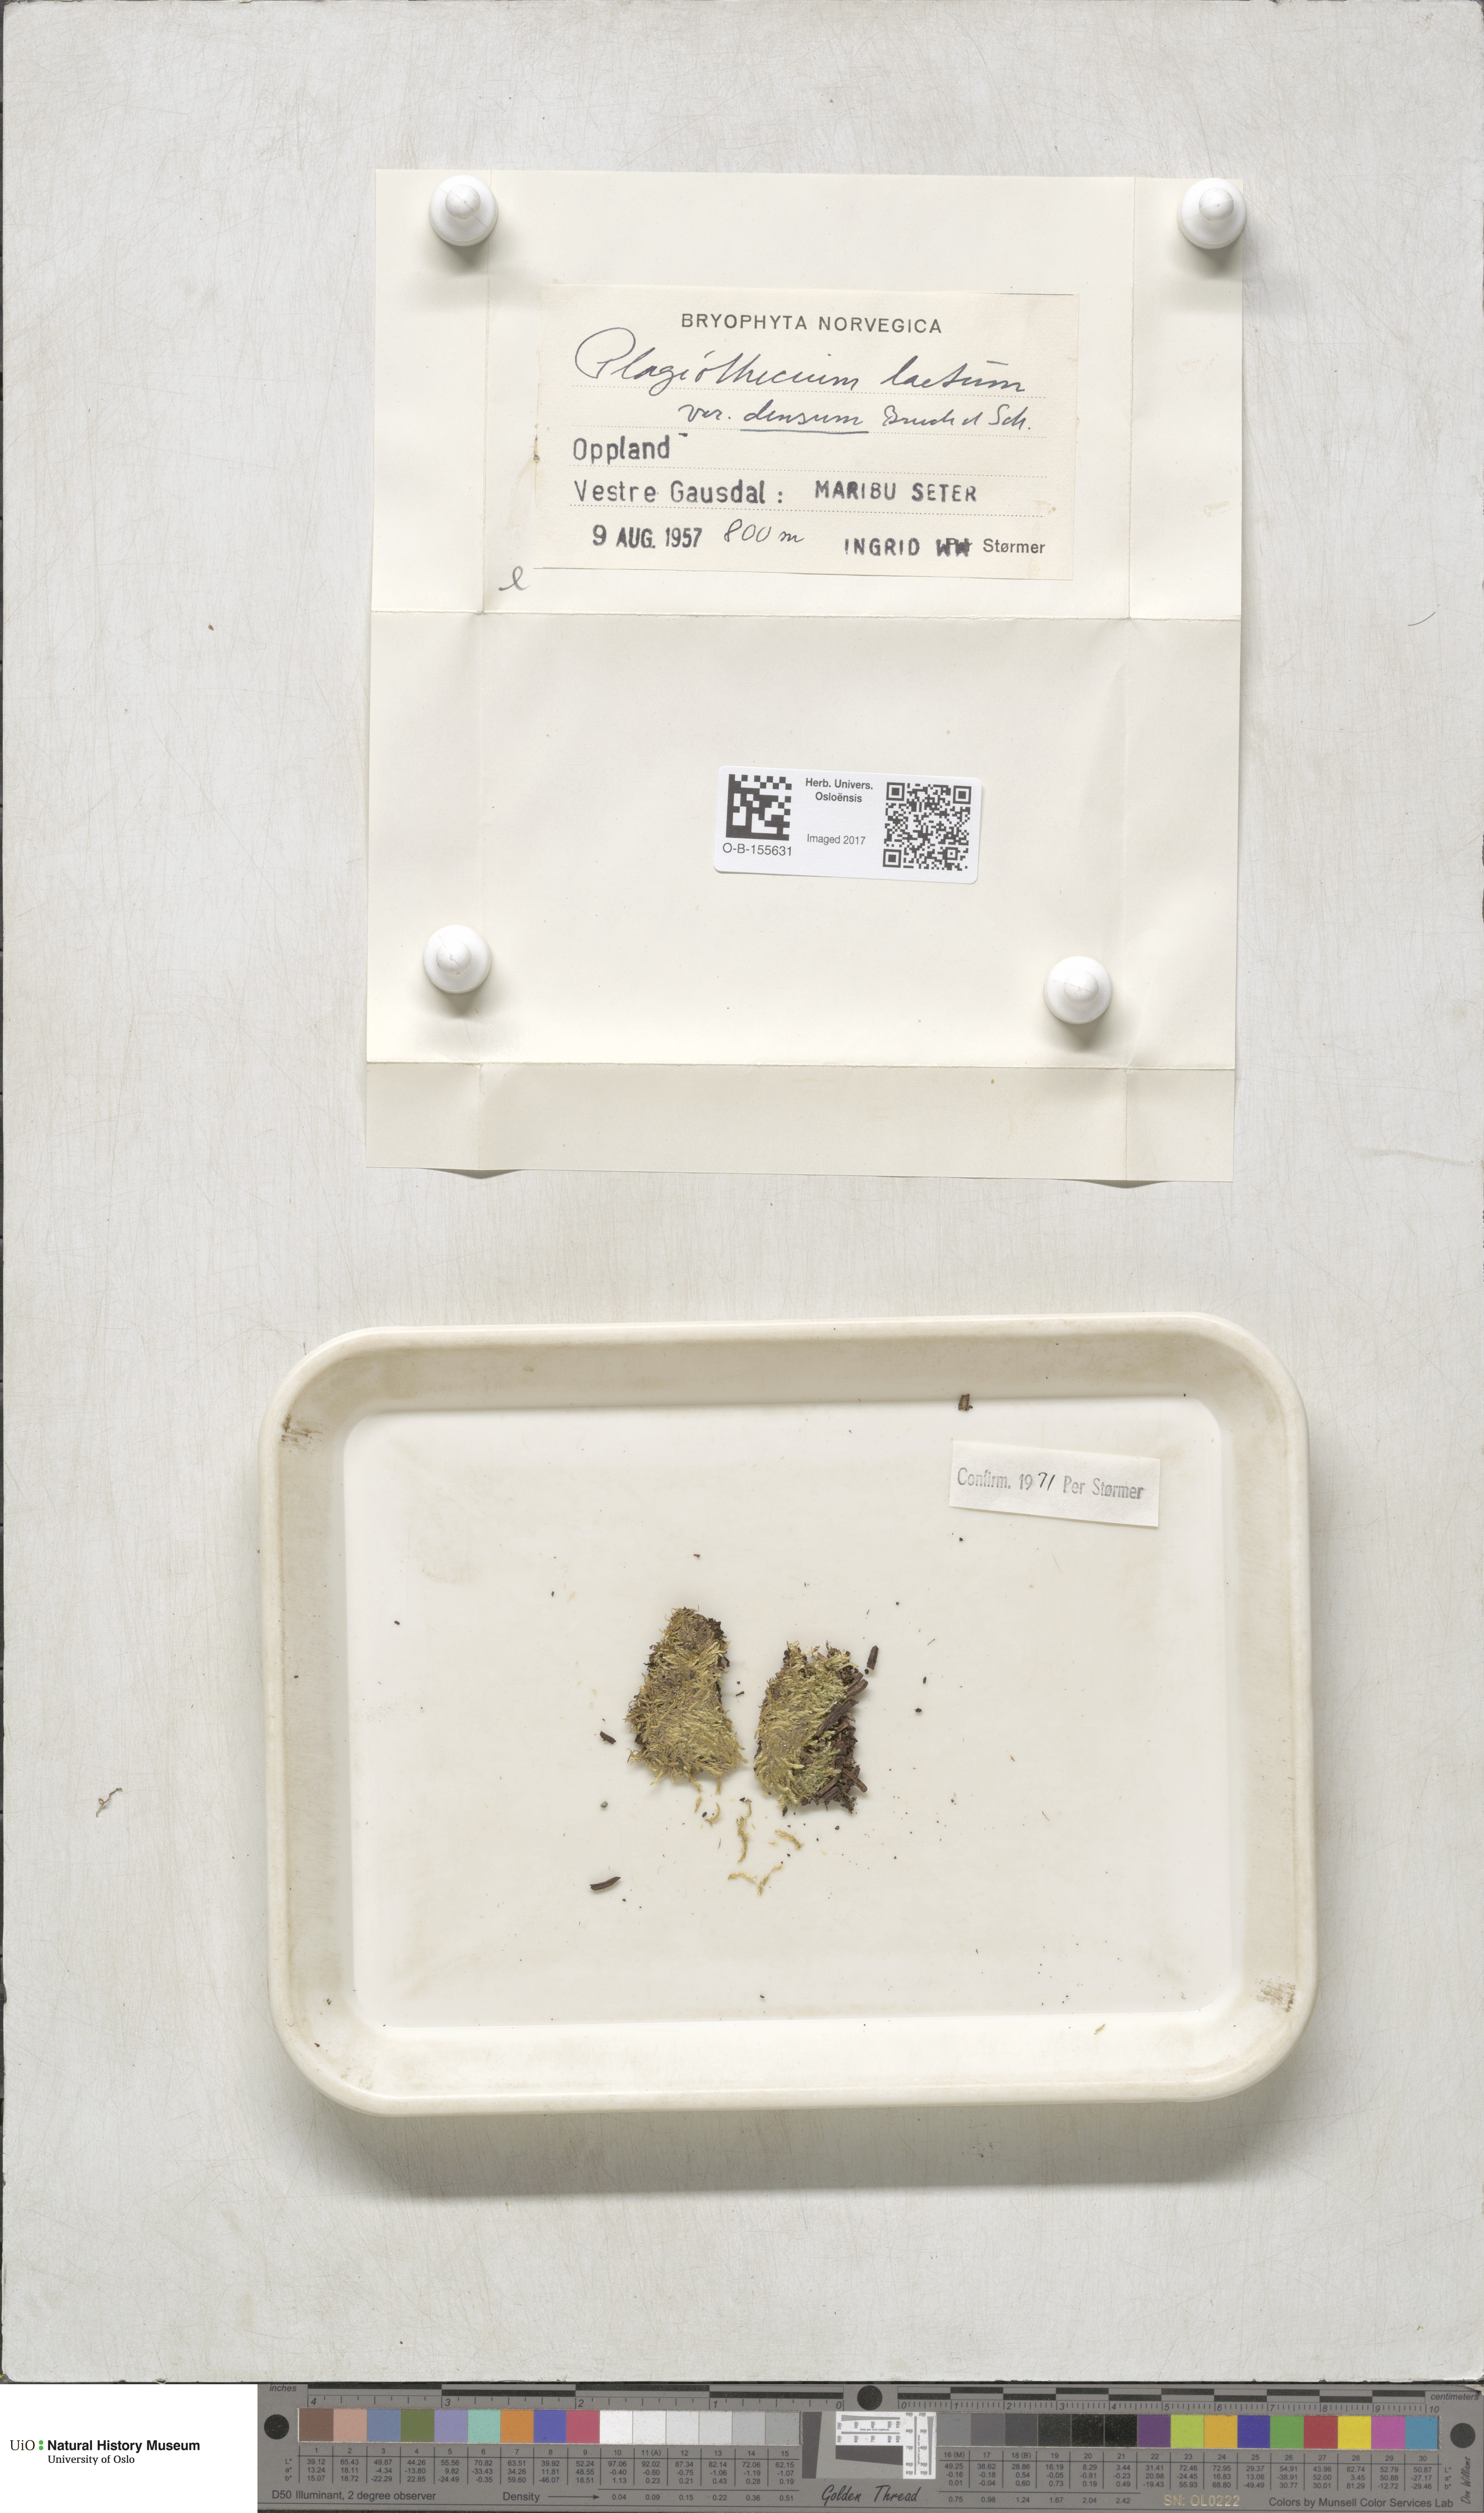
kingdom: Plantae
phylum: Bryophyta
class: Bryopsida
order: Hypnales
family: Plagiotheciaceae
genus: Plagiothecium
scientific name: Plagiothecium denticulatum
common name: Dented silk moss
